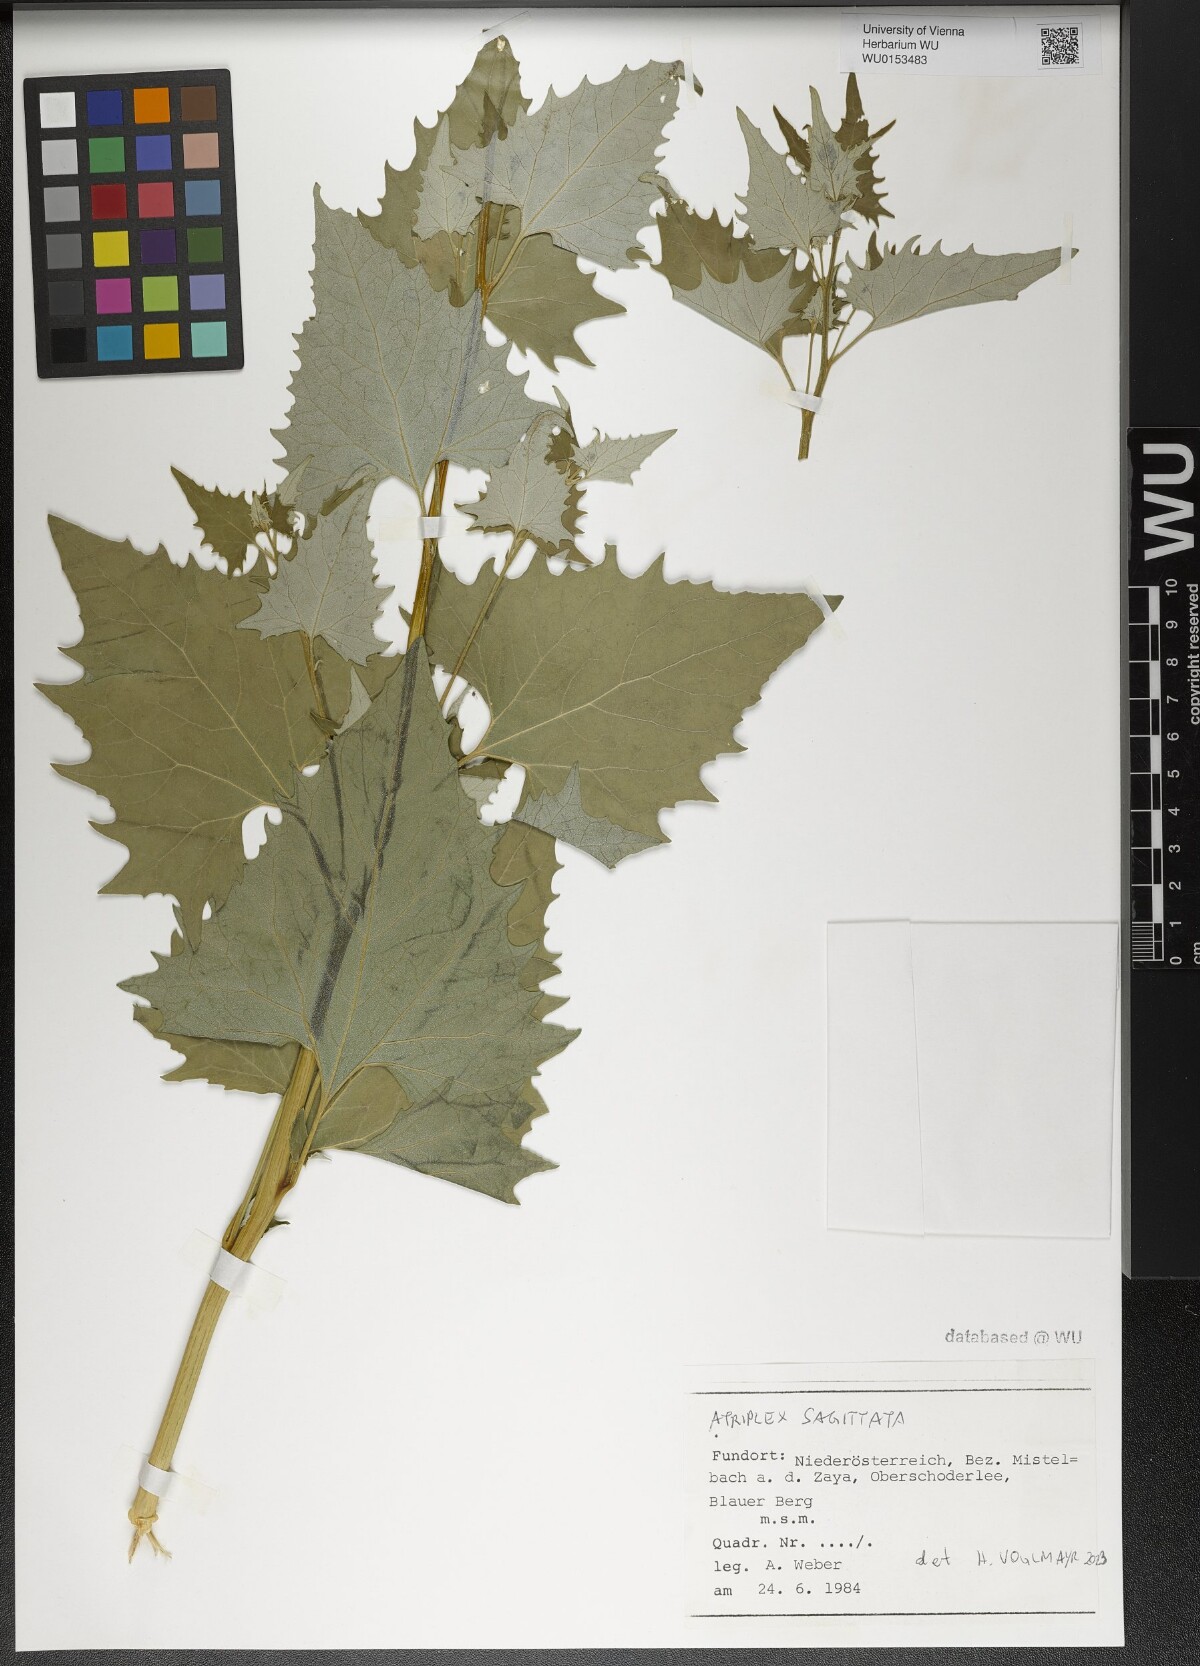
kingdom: Plantae
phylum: Tracheophyta
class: Magnoliopsida
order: Caryophyllales
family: Amaranthaceae
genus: Atriplex
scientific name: Atriplex sagittata
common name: Purple orache
